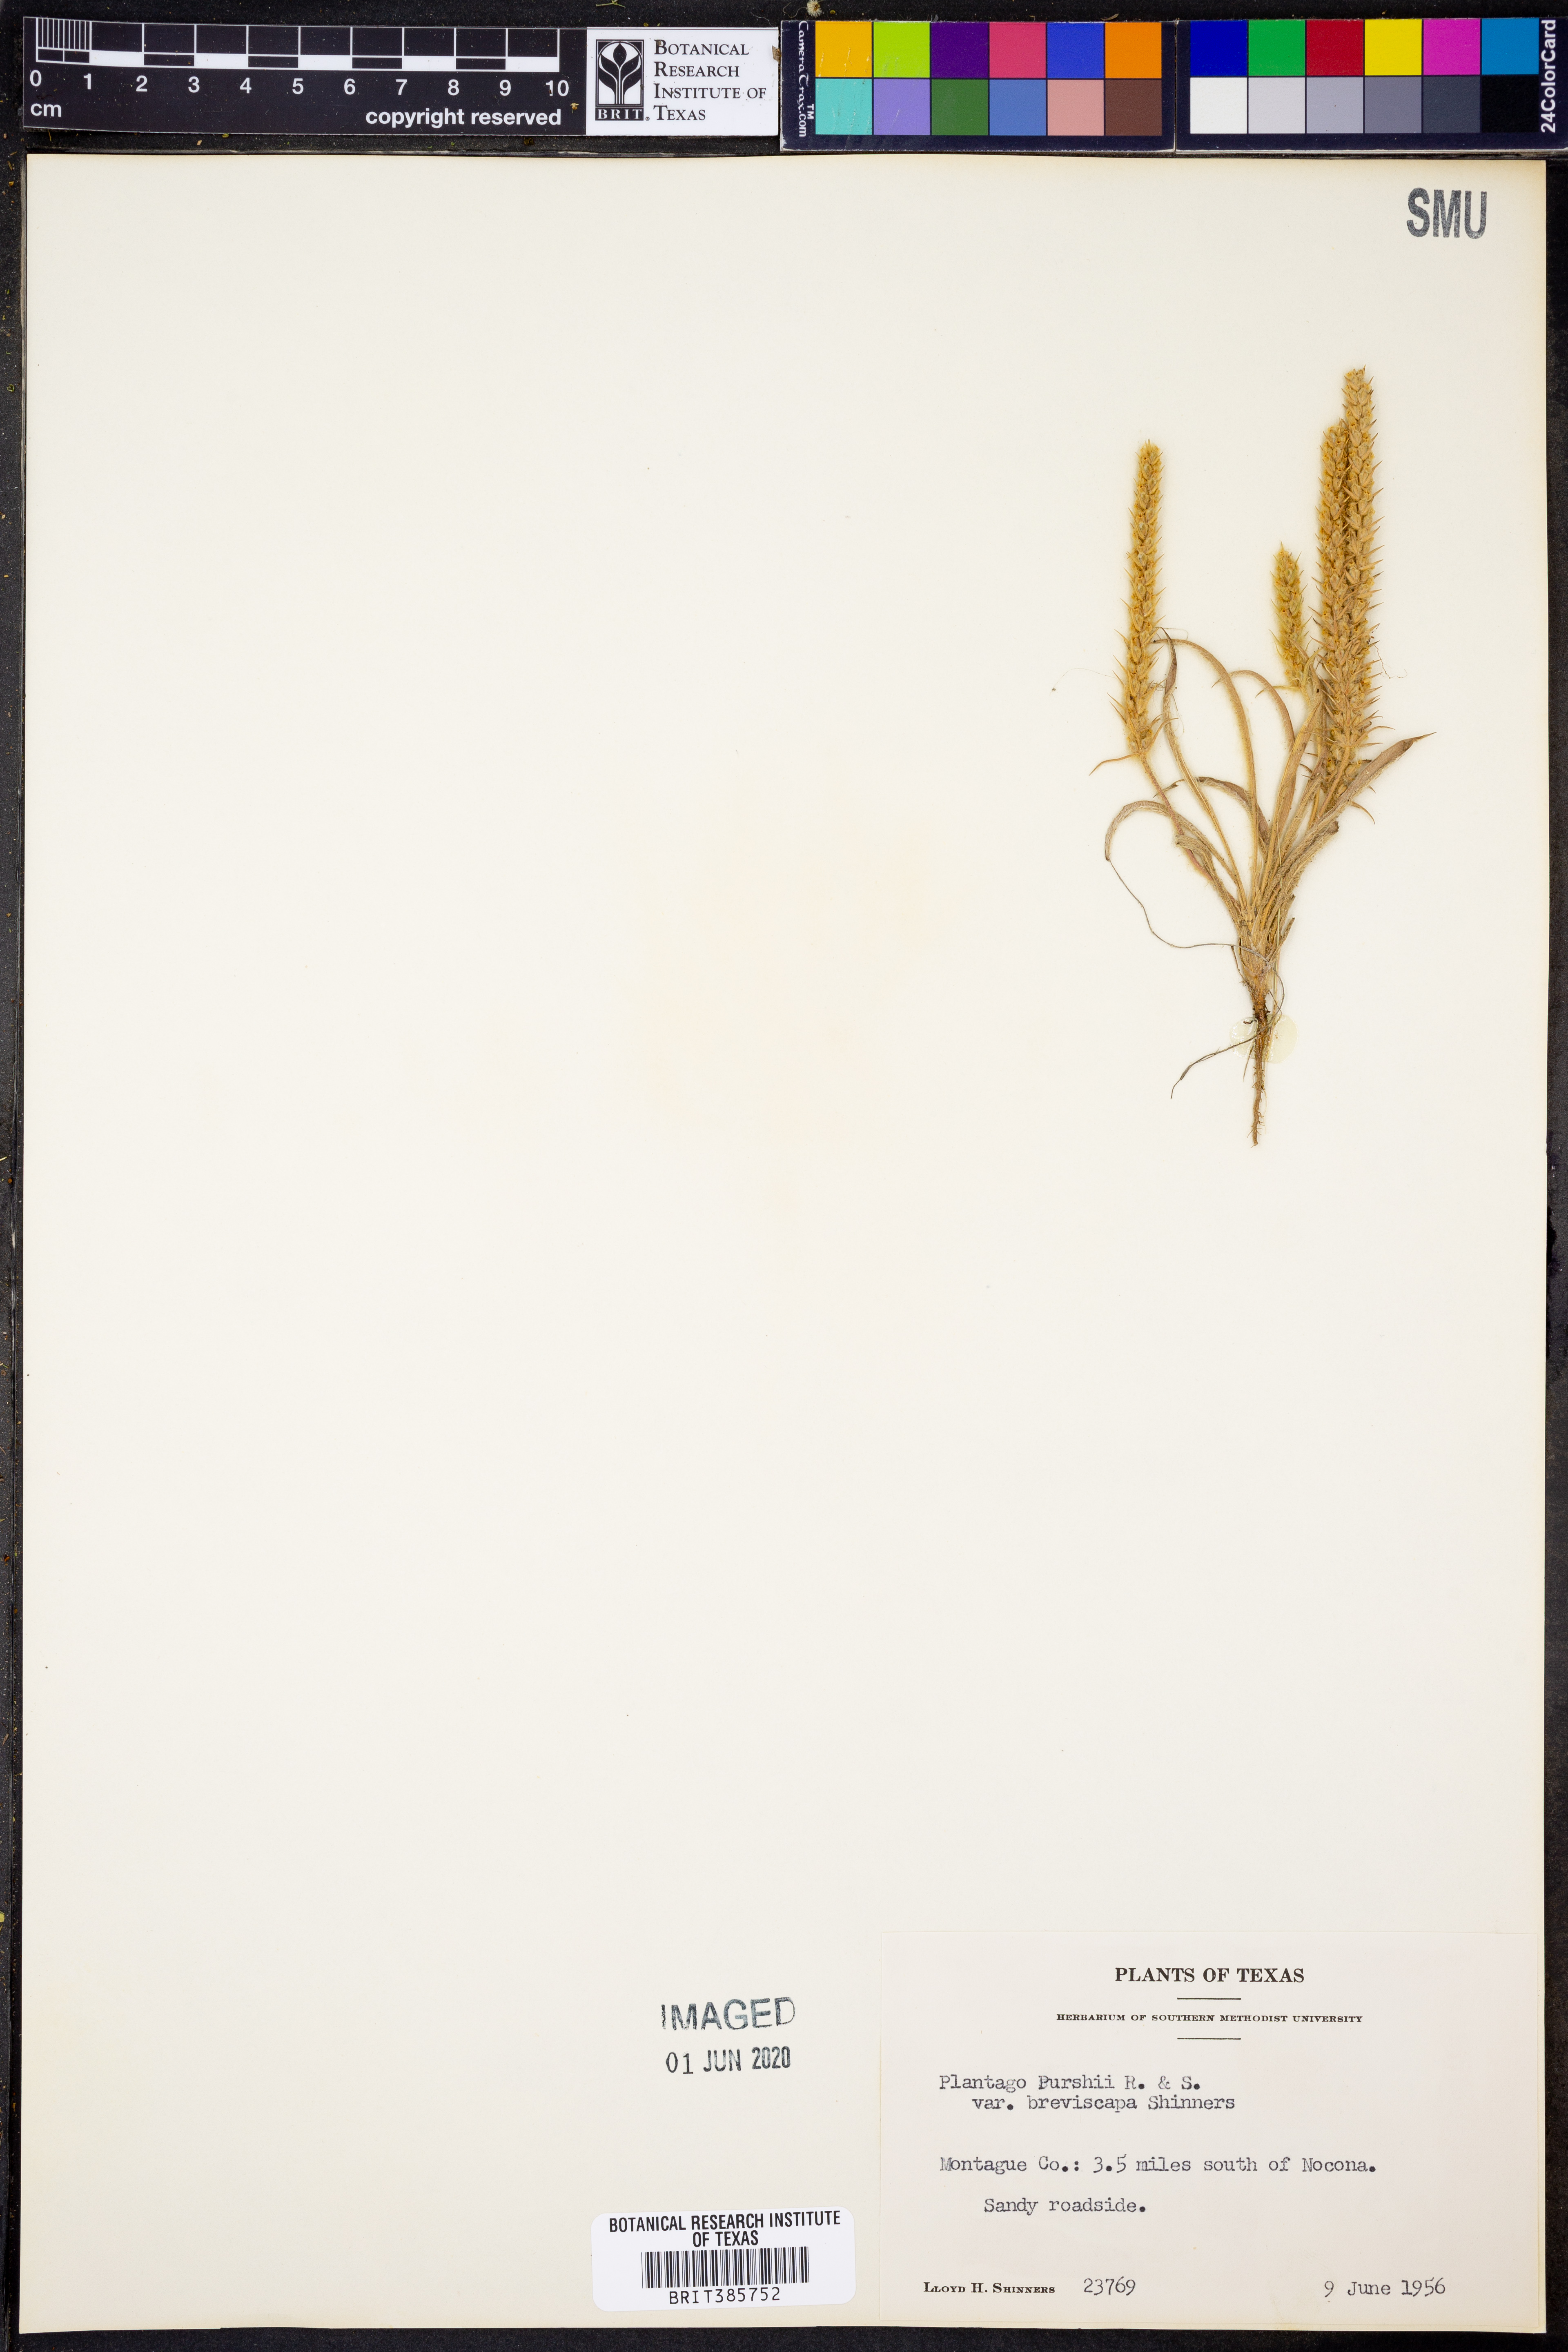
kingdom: Plantae
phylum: Tracheophyta
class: Magnoliopsida
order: Lamiales
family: Plantaginaceae
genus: Plantago
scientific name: Plantago patagonica
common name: Patagonia indian-wheat
